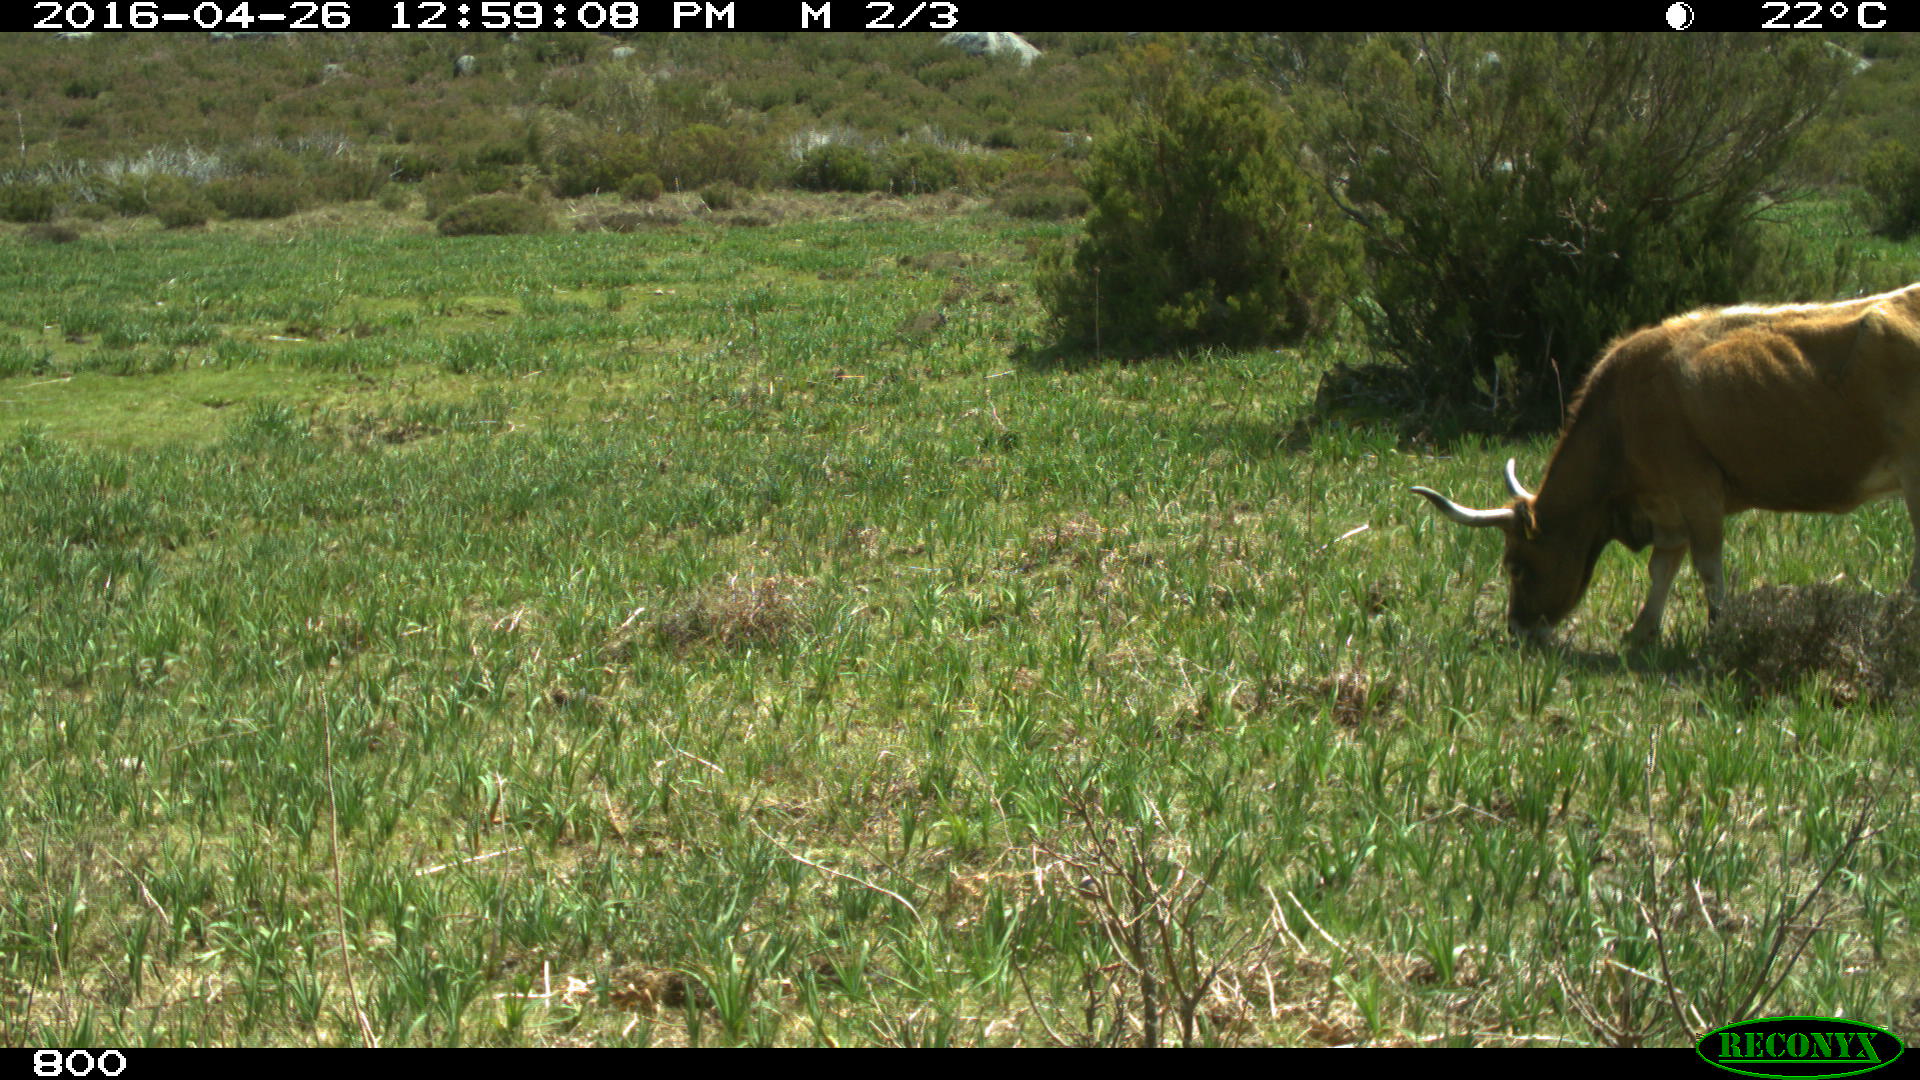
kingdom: Animalia
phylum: Chordata
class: Mammalia
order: Artiodactyla
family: Bovidae
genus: Bos
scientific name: Bos taurus
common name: Domesticated cattle
